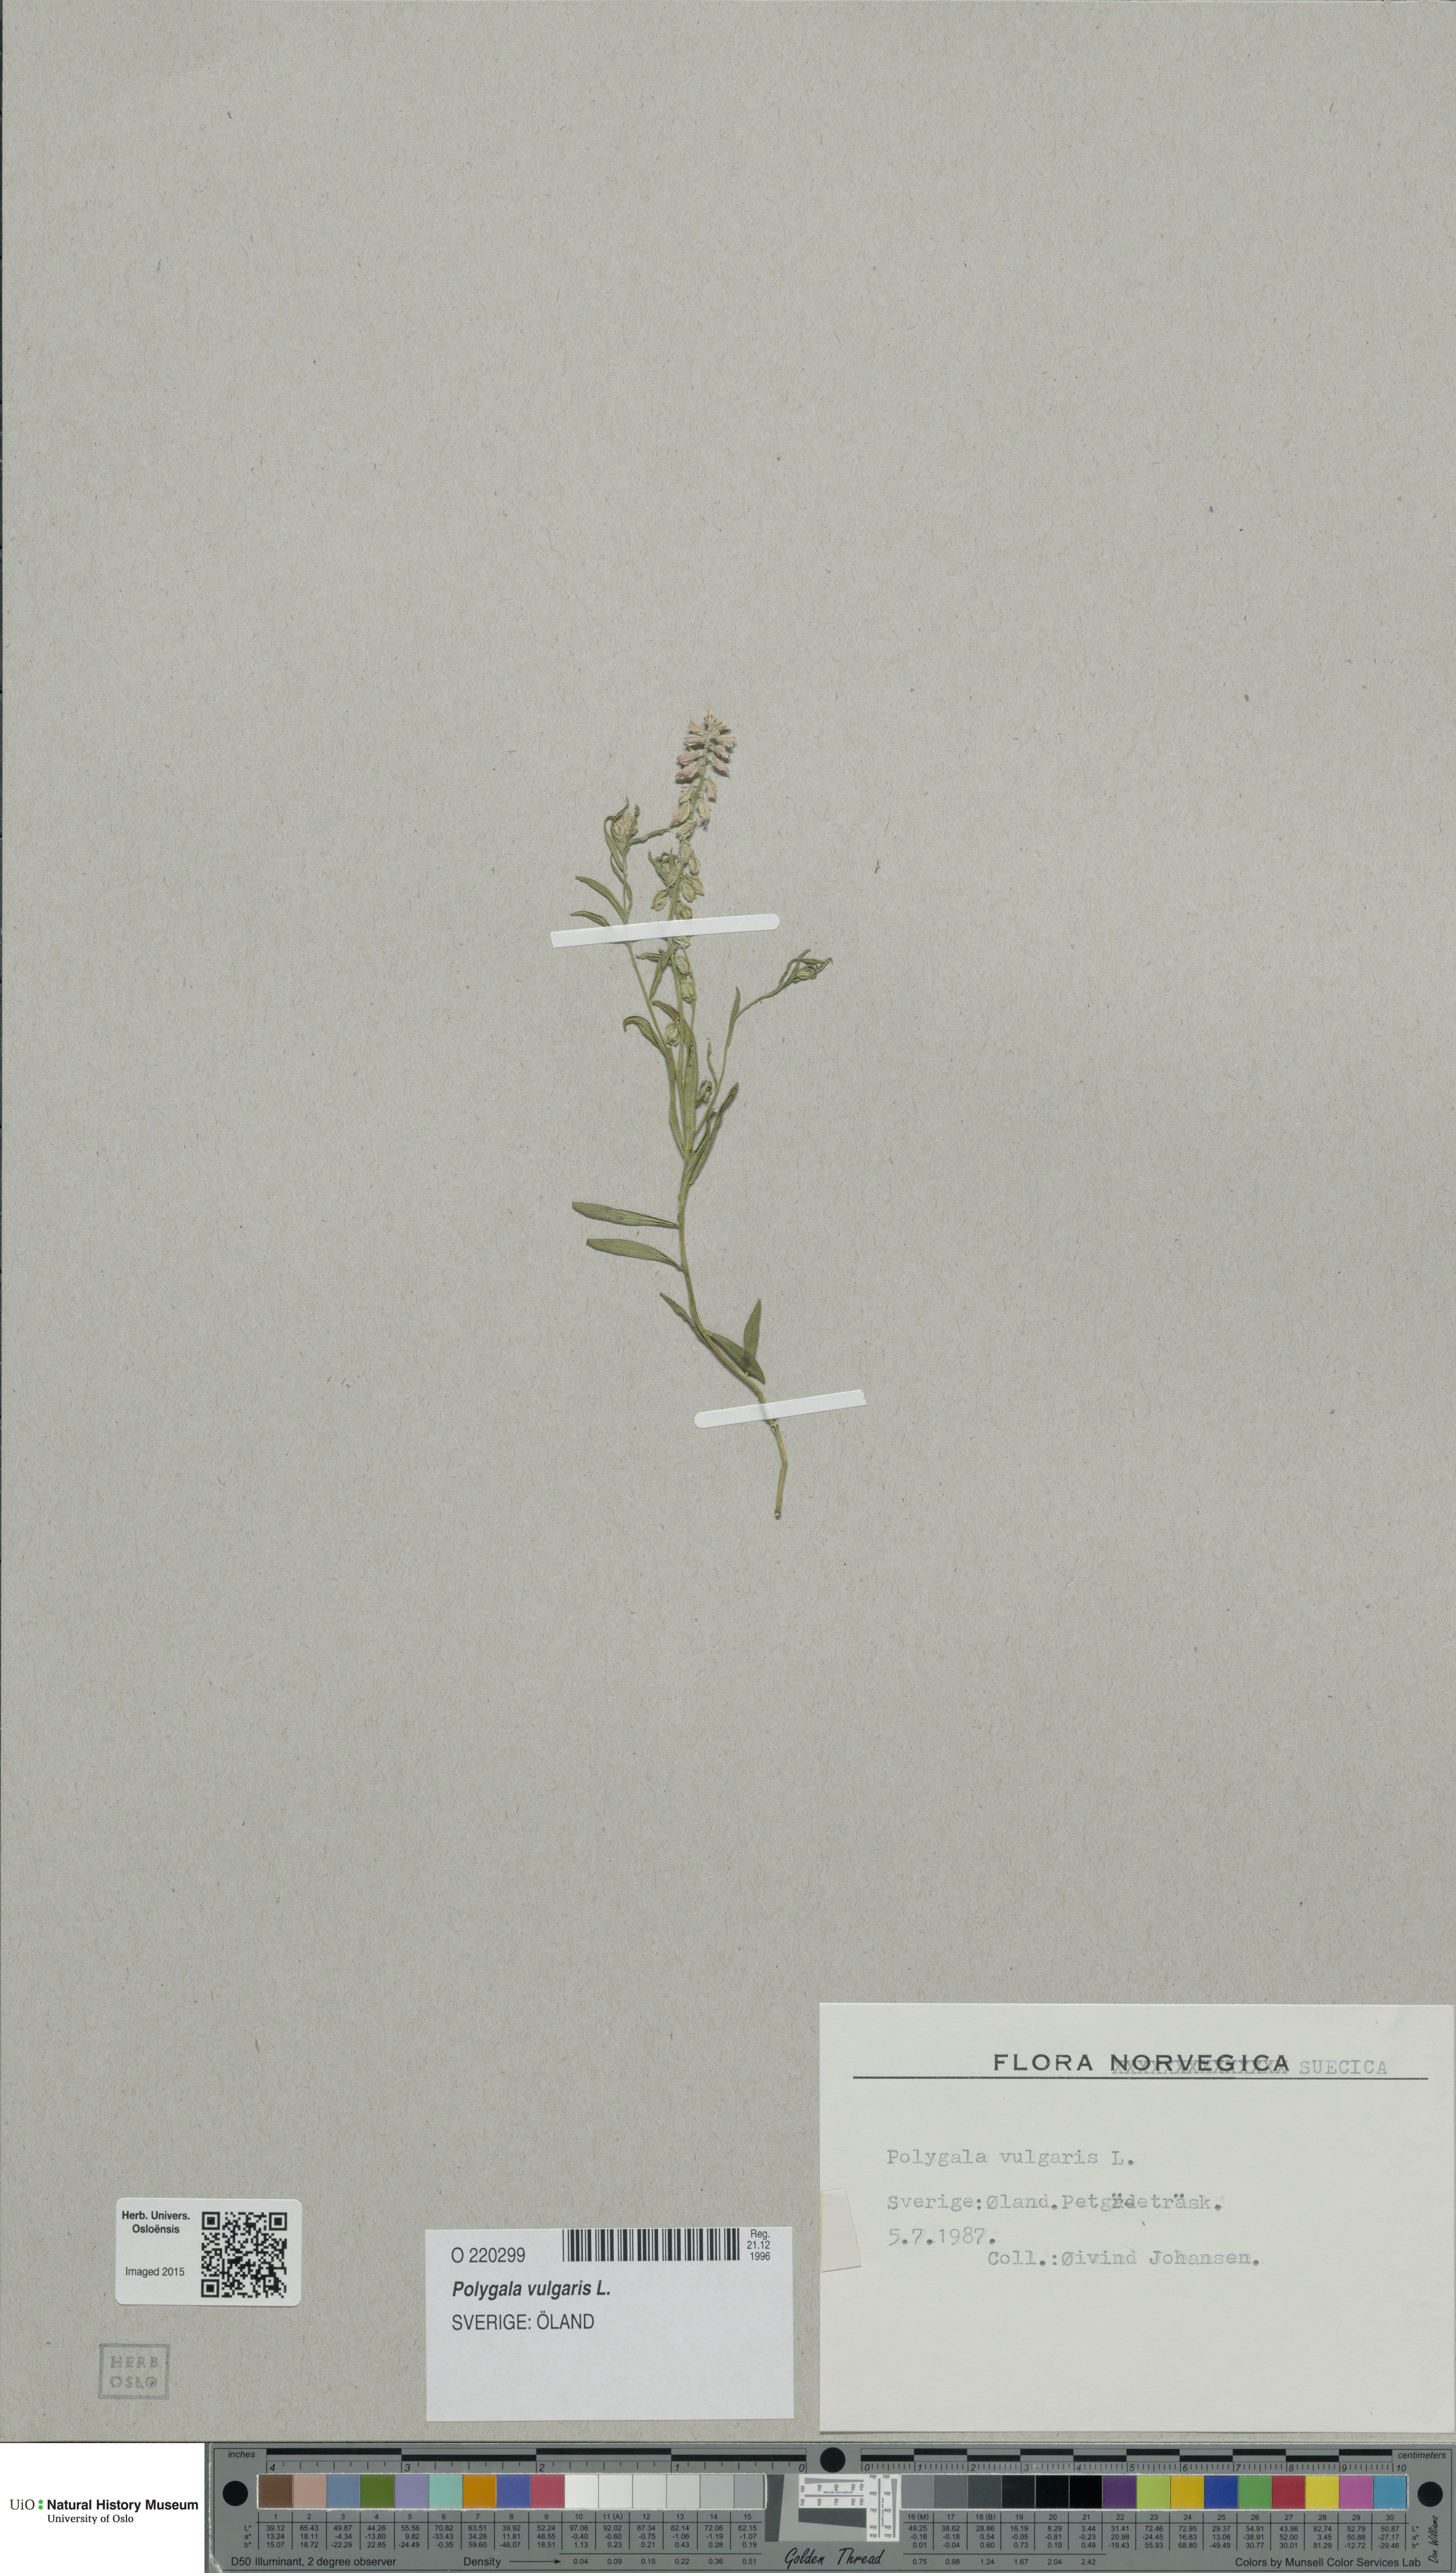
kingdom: Plantae
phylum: Tracheophyta
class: Magnoliopsida
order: Fabales
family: Polygalaceae
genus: Polygala
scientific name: Polygala vulgaris
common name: Common milkwort
